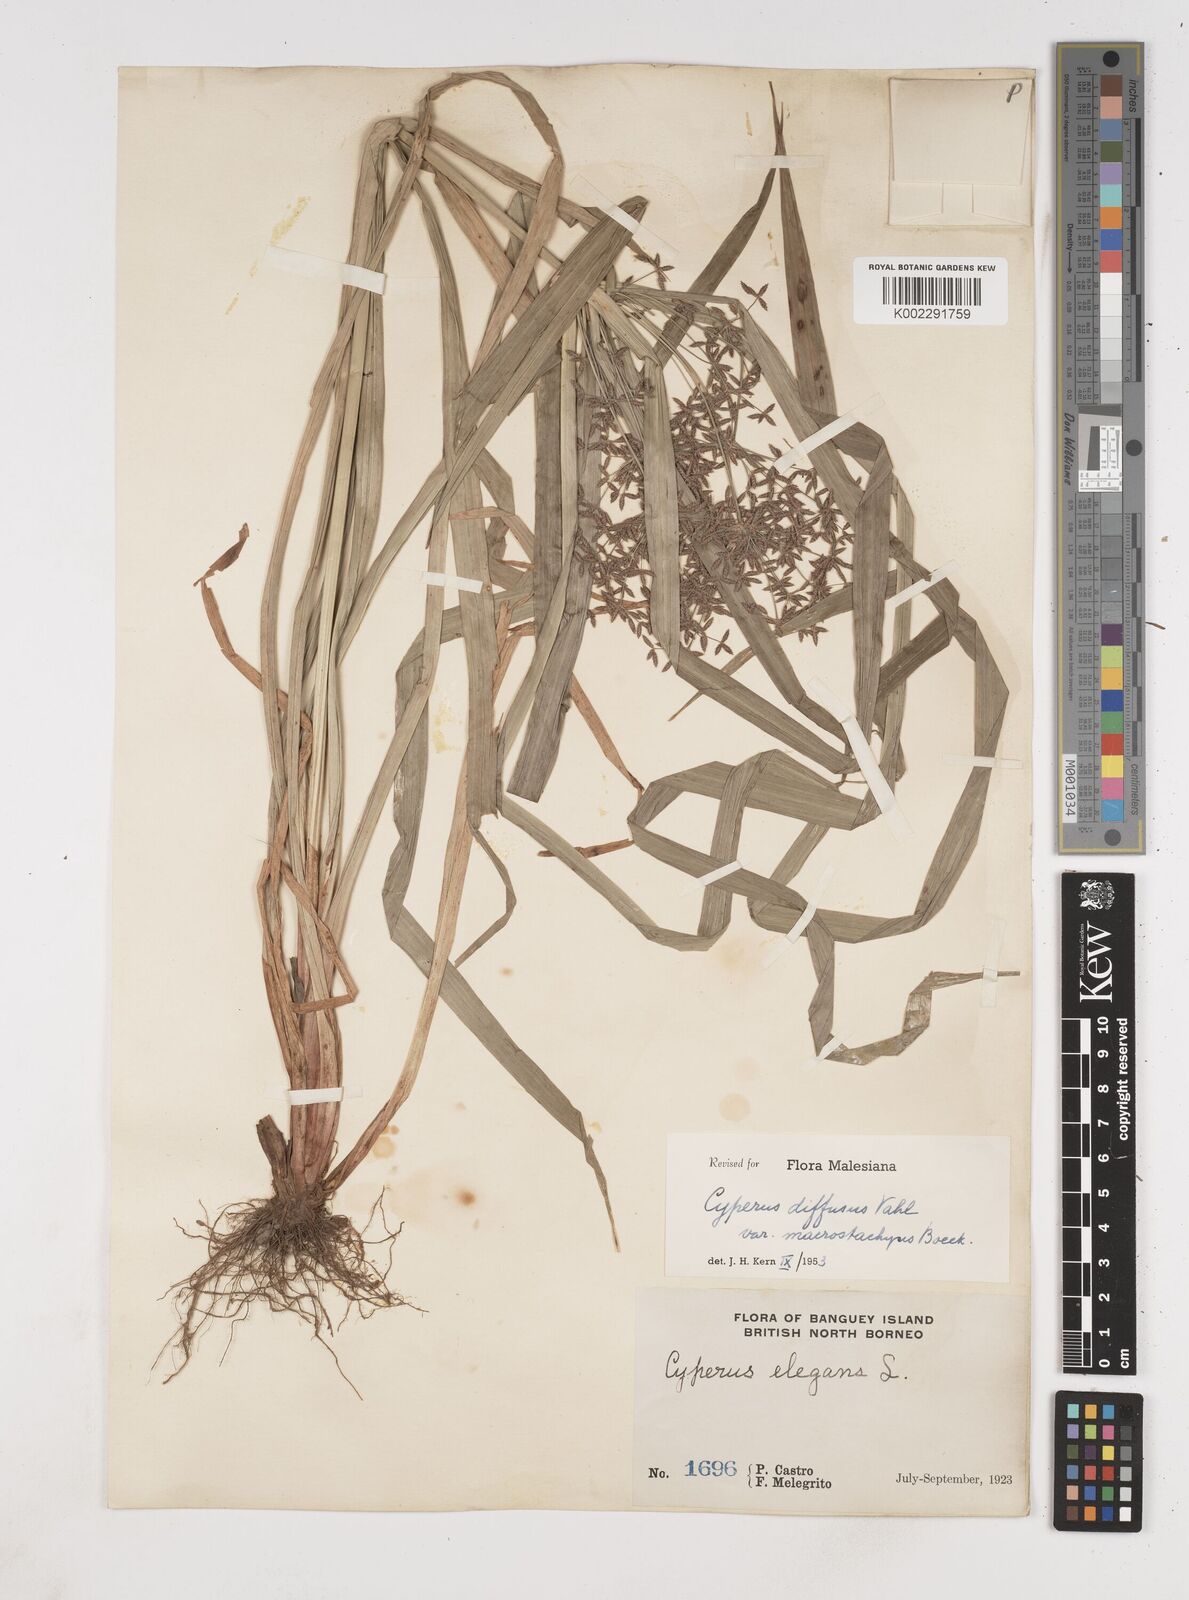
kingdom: Plantae
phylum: Tracheophyta
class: Liliopsida
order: Poales
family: Cyperaceae
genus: Cyperus
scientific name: Cyperus diffusus
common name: Dwarf umbrella grass
